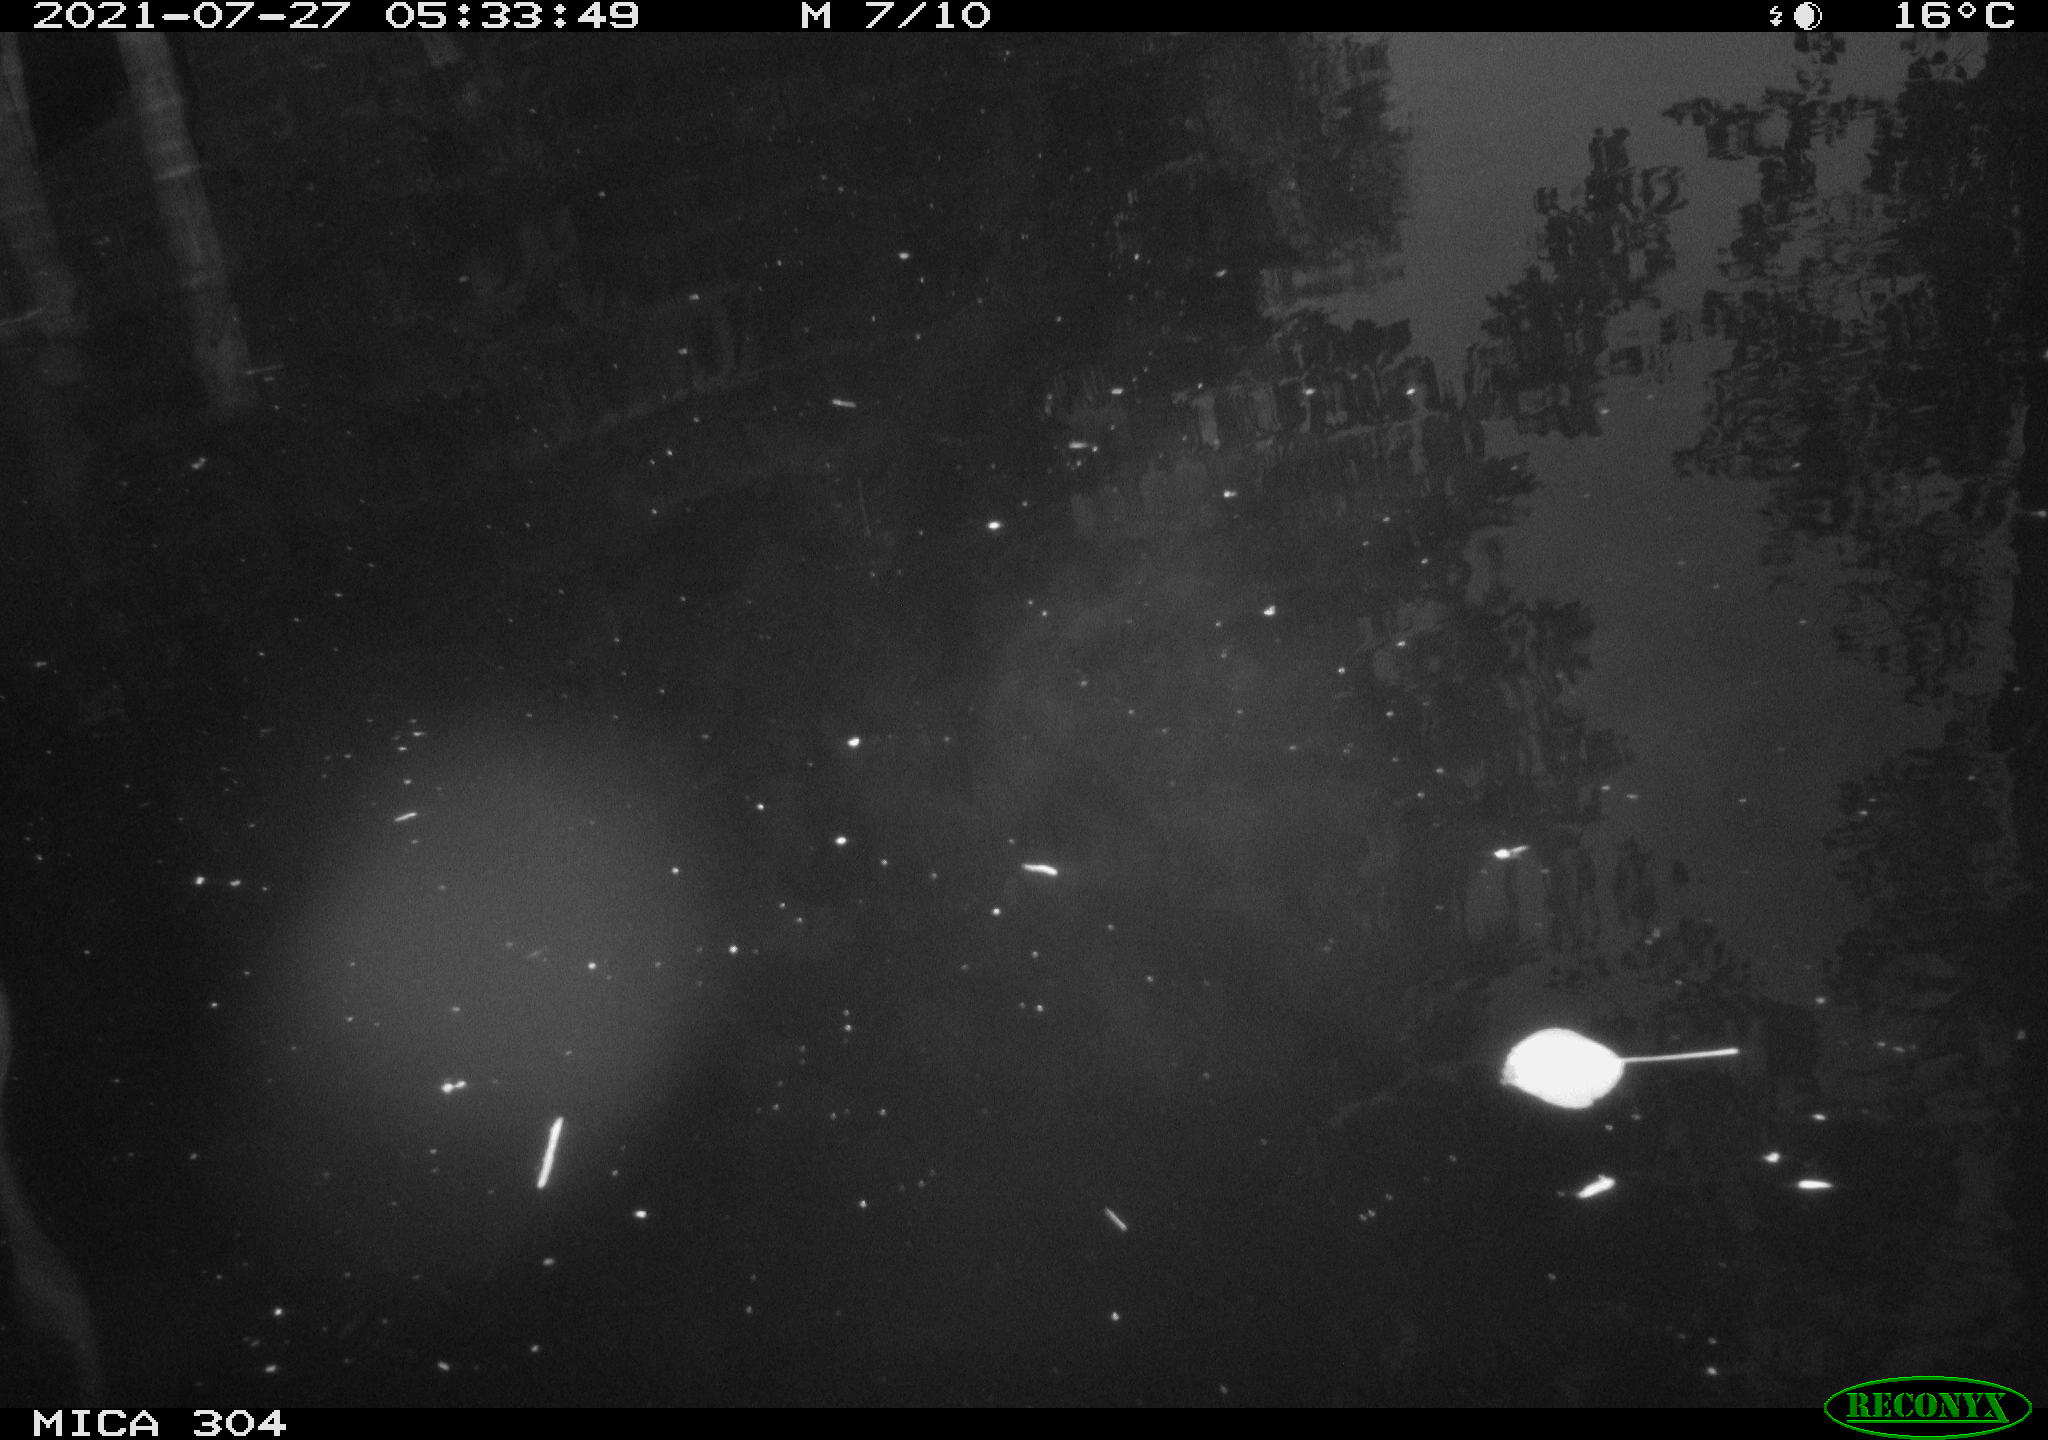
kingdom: Animalia
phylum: Chordata
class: Aves
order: Anseriformes
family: Anatidae
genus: Anas
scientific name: Anas platyrhynchos
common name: Mallard
